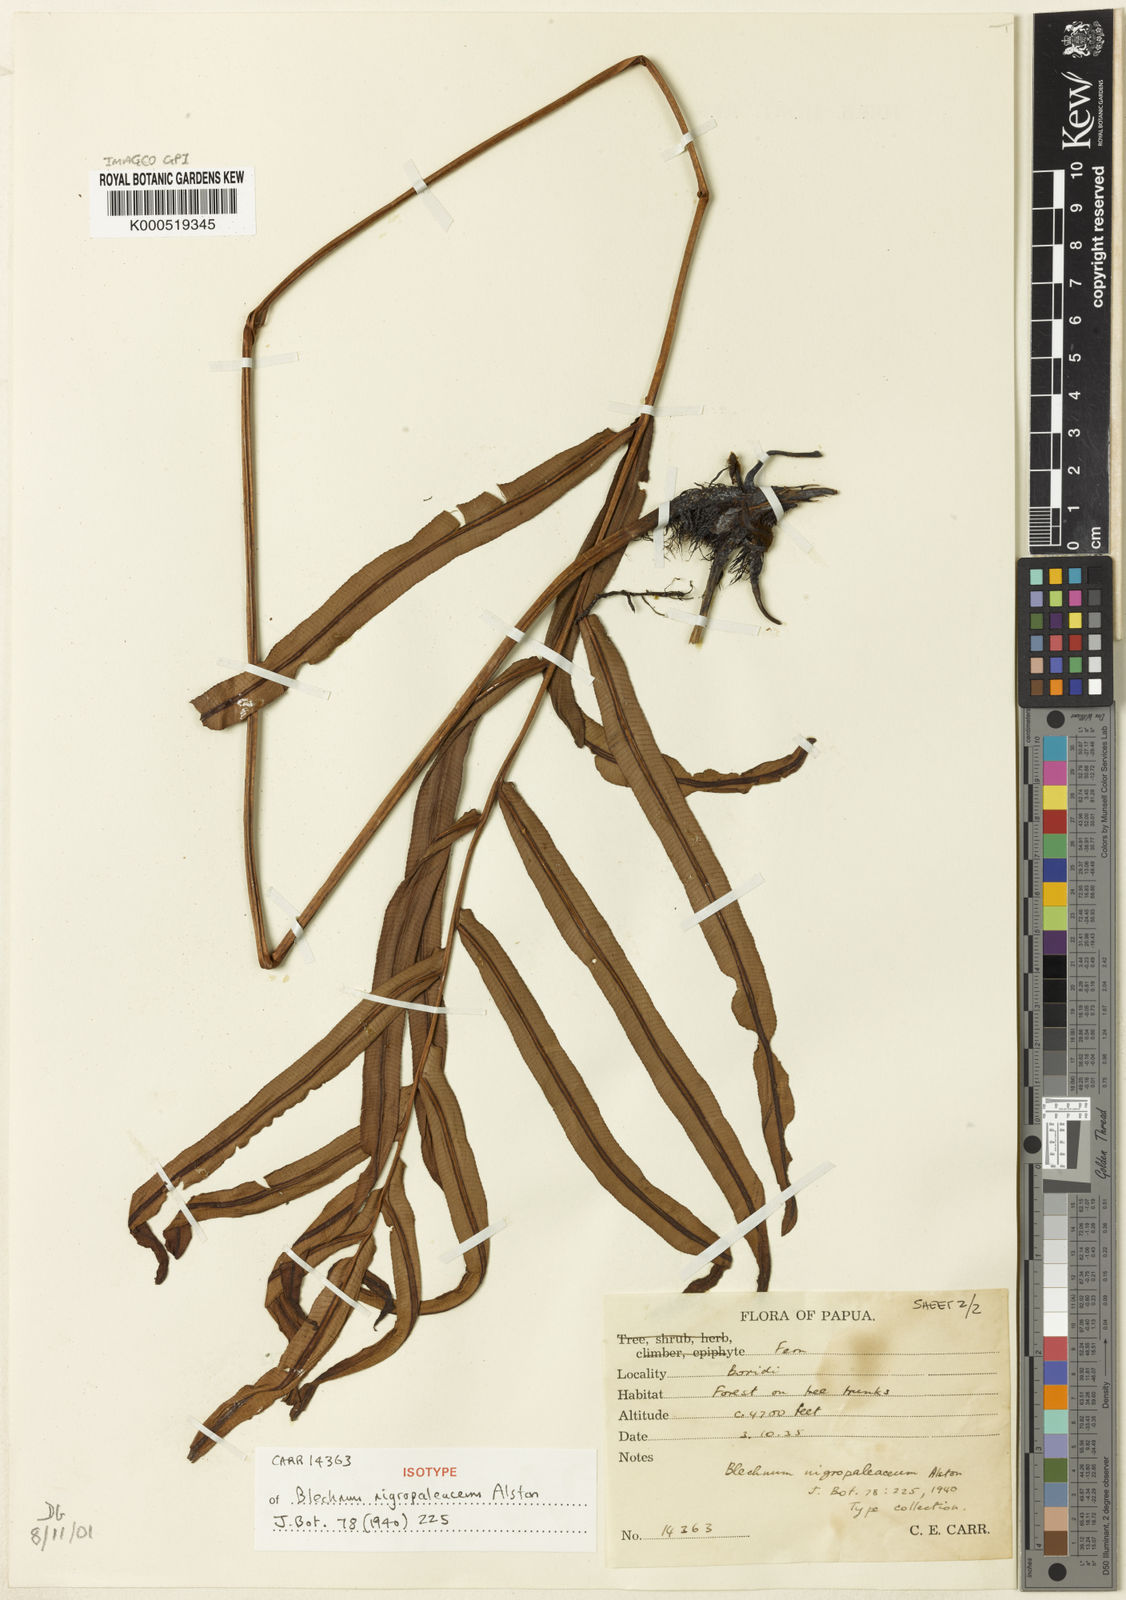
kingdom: Plantae
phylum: Tracheophyta
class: Polypodiopsida
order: Polypodiales
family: Blechnaceae
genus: Oceaniopteris
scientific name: Oceaniopteris whelanii
